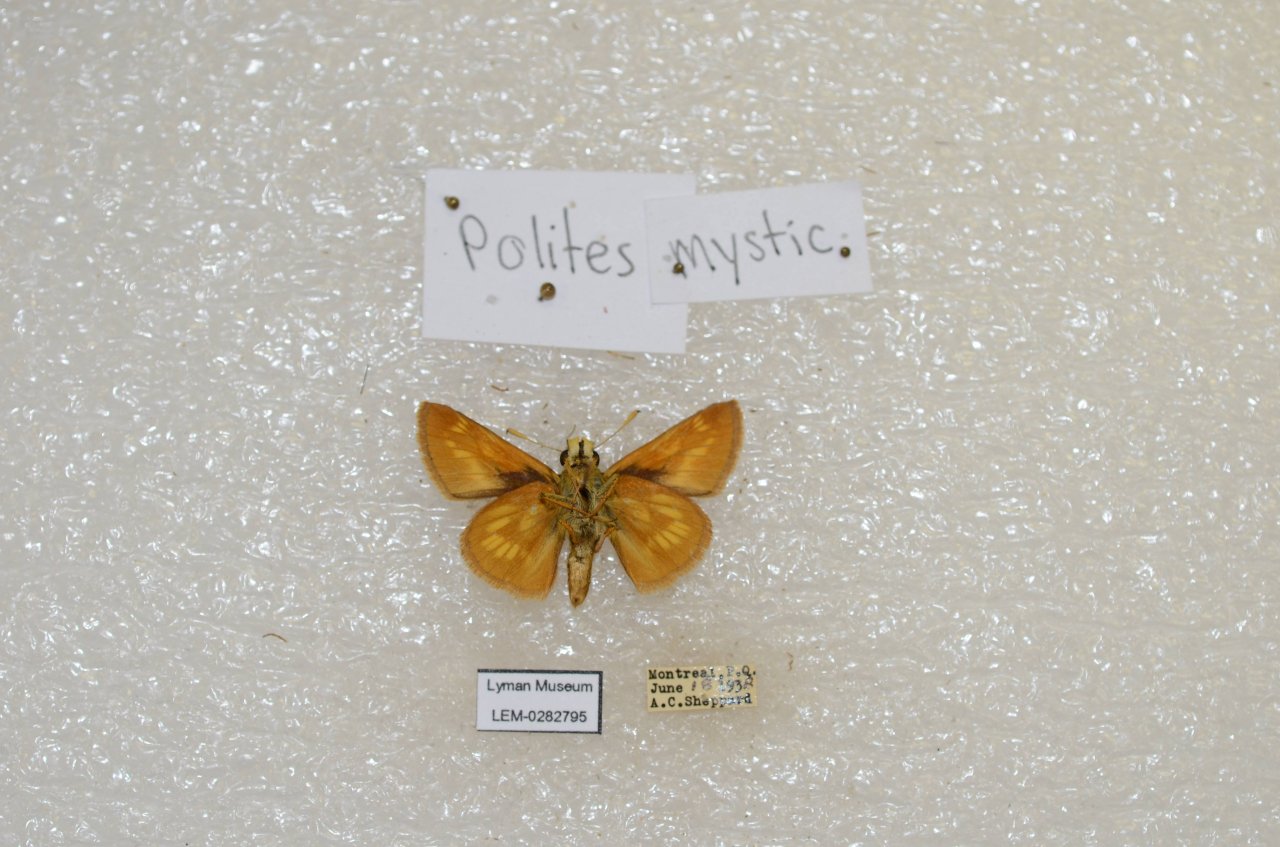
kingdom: Animalia
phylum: Arthropoda
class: Insecta
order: Lepidoptera
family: Hesperiidae
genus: Polites
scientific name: Polites
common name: Long Dash Skipper
